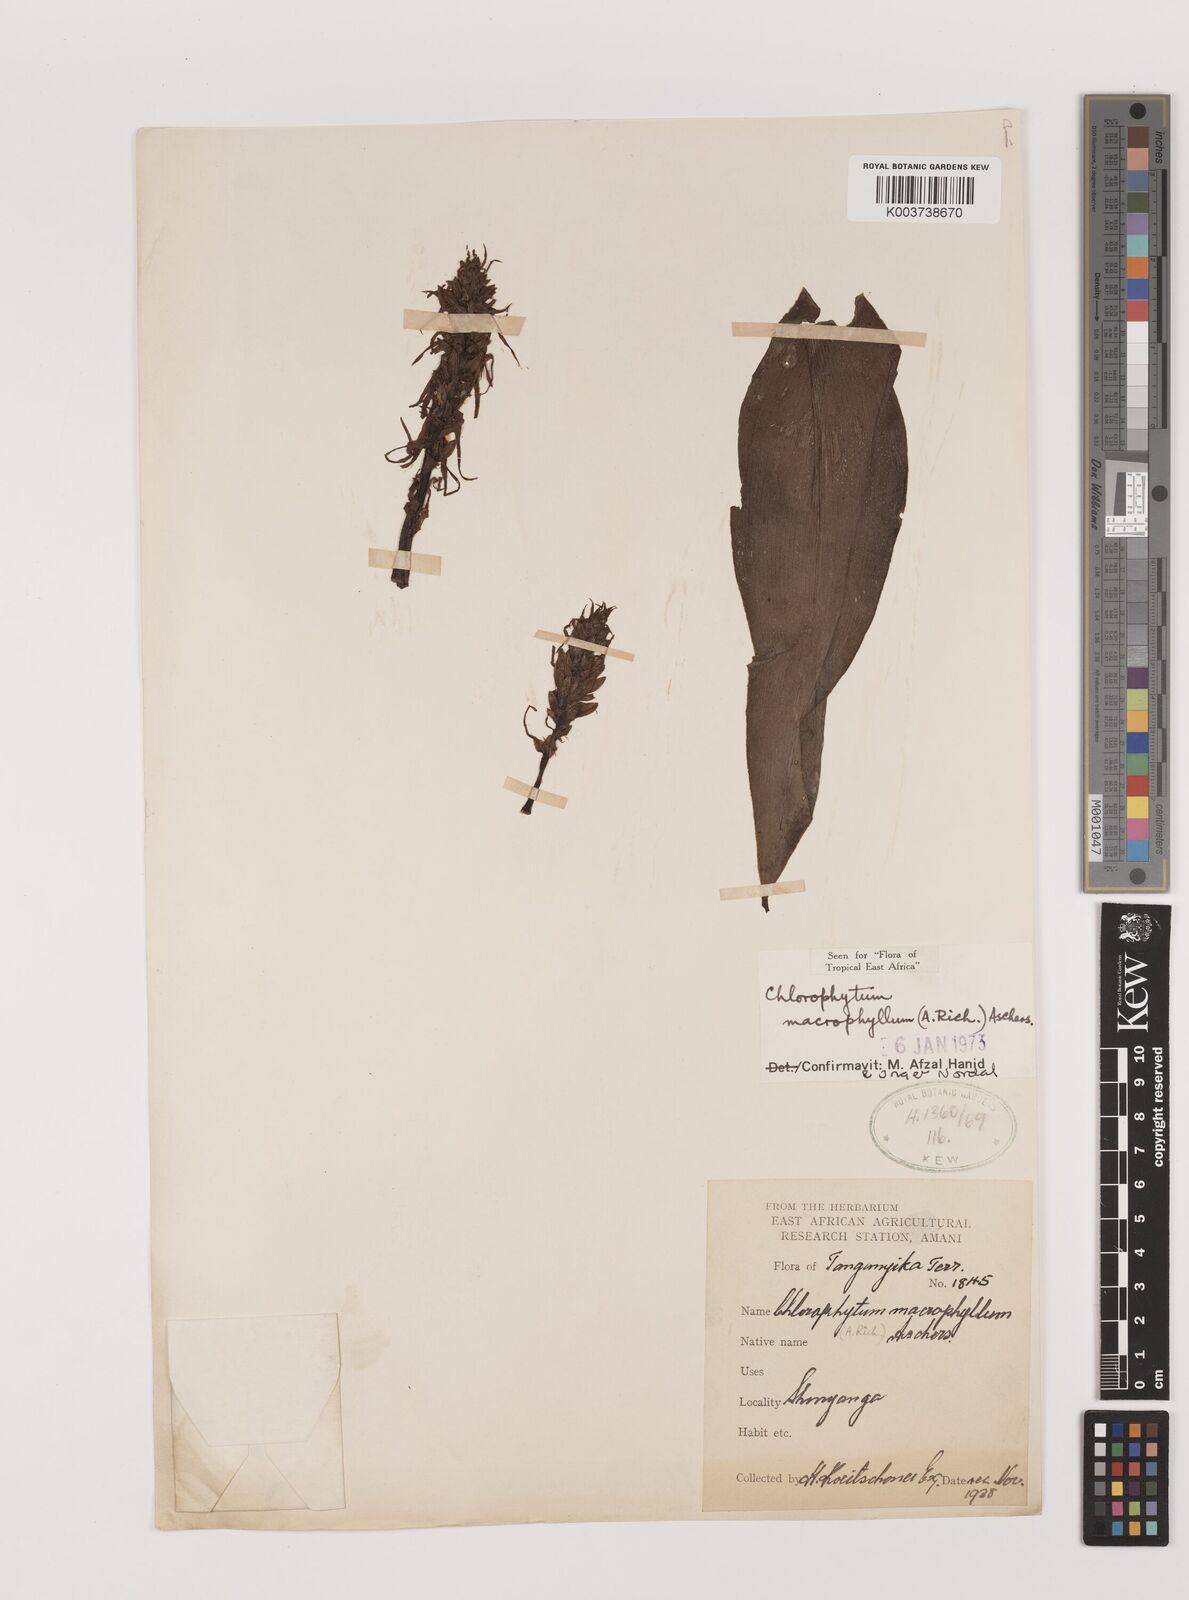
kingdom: Plantae
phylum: Tracheophyta
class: Liliopsida
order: Asparagales
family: Asparagaceae
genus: Chlorophytum
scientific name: Chlorophytum macrophyllum
